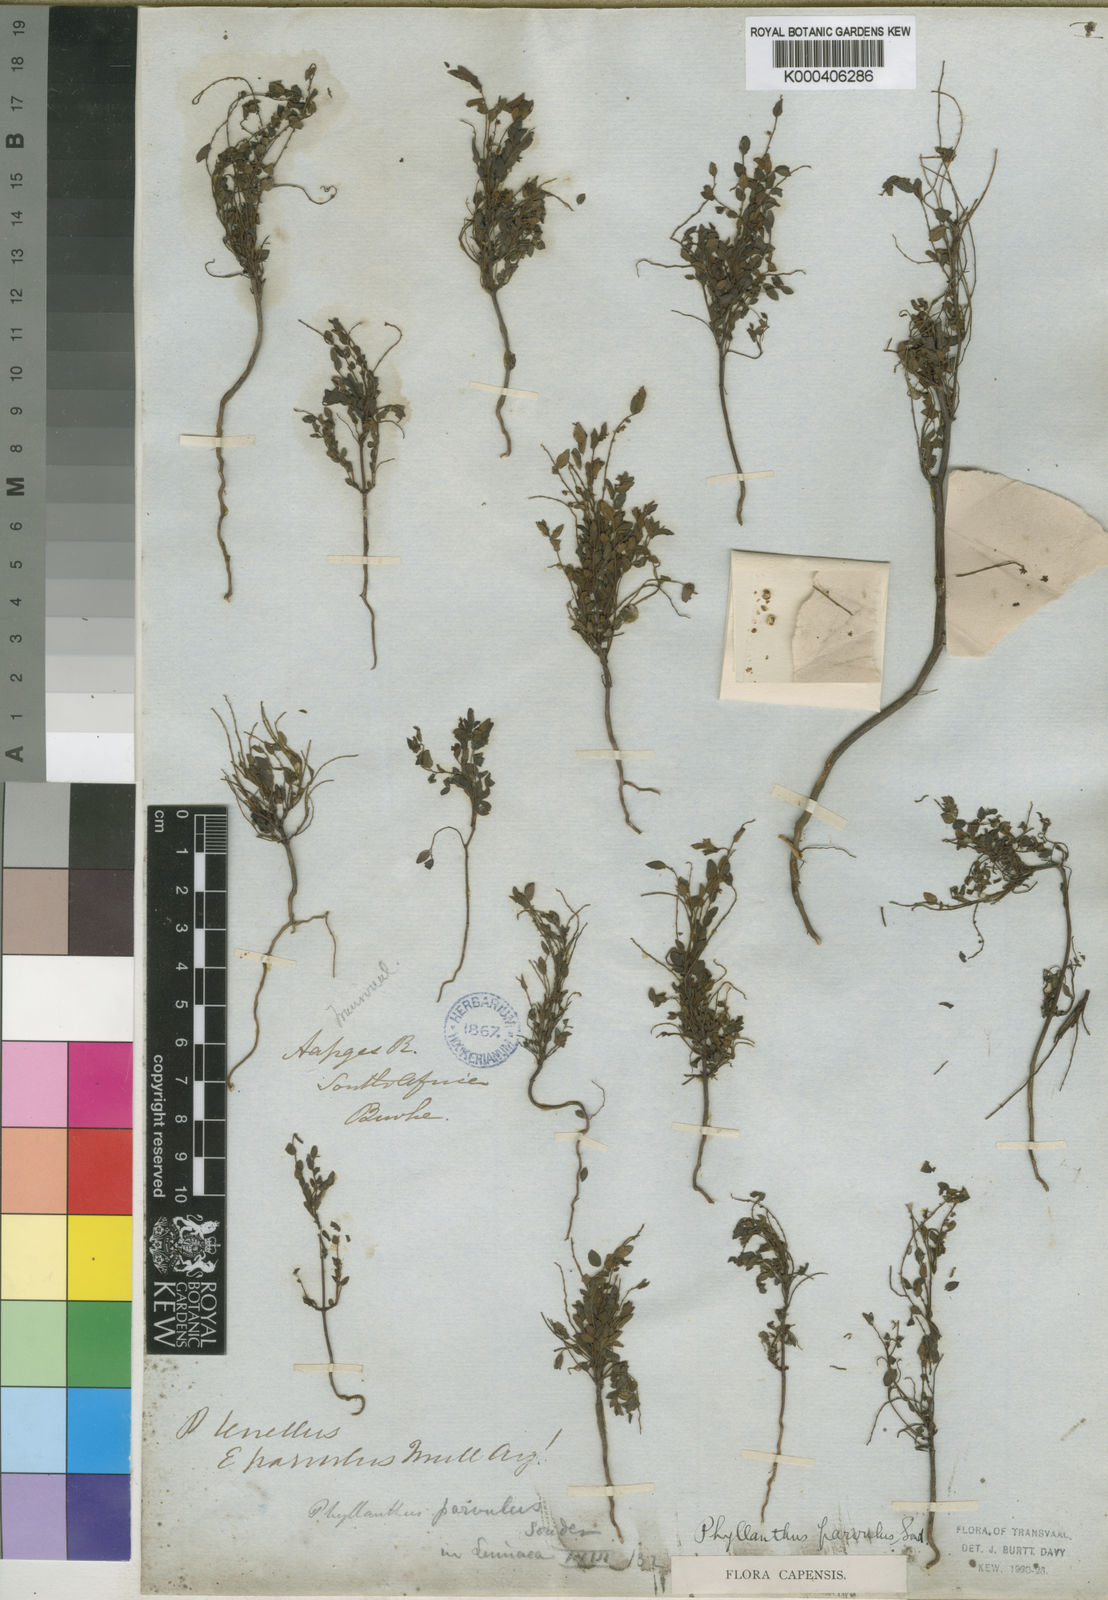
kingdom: Plantae
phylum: Tracheophyta
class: Magnoliopsida
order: Malpighiales
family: Phyllanthaceae
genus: Phyllanthus
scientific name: Phyllanthus parvulus
